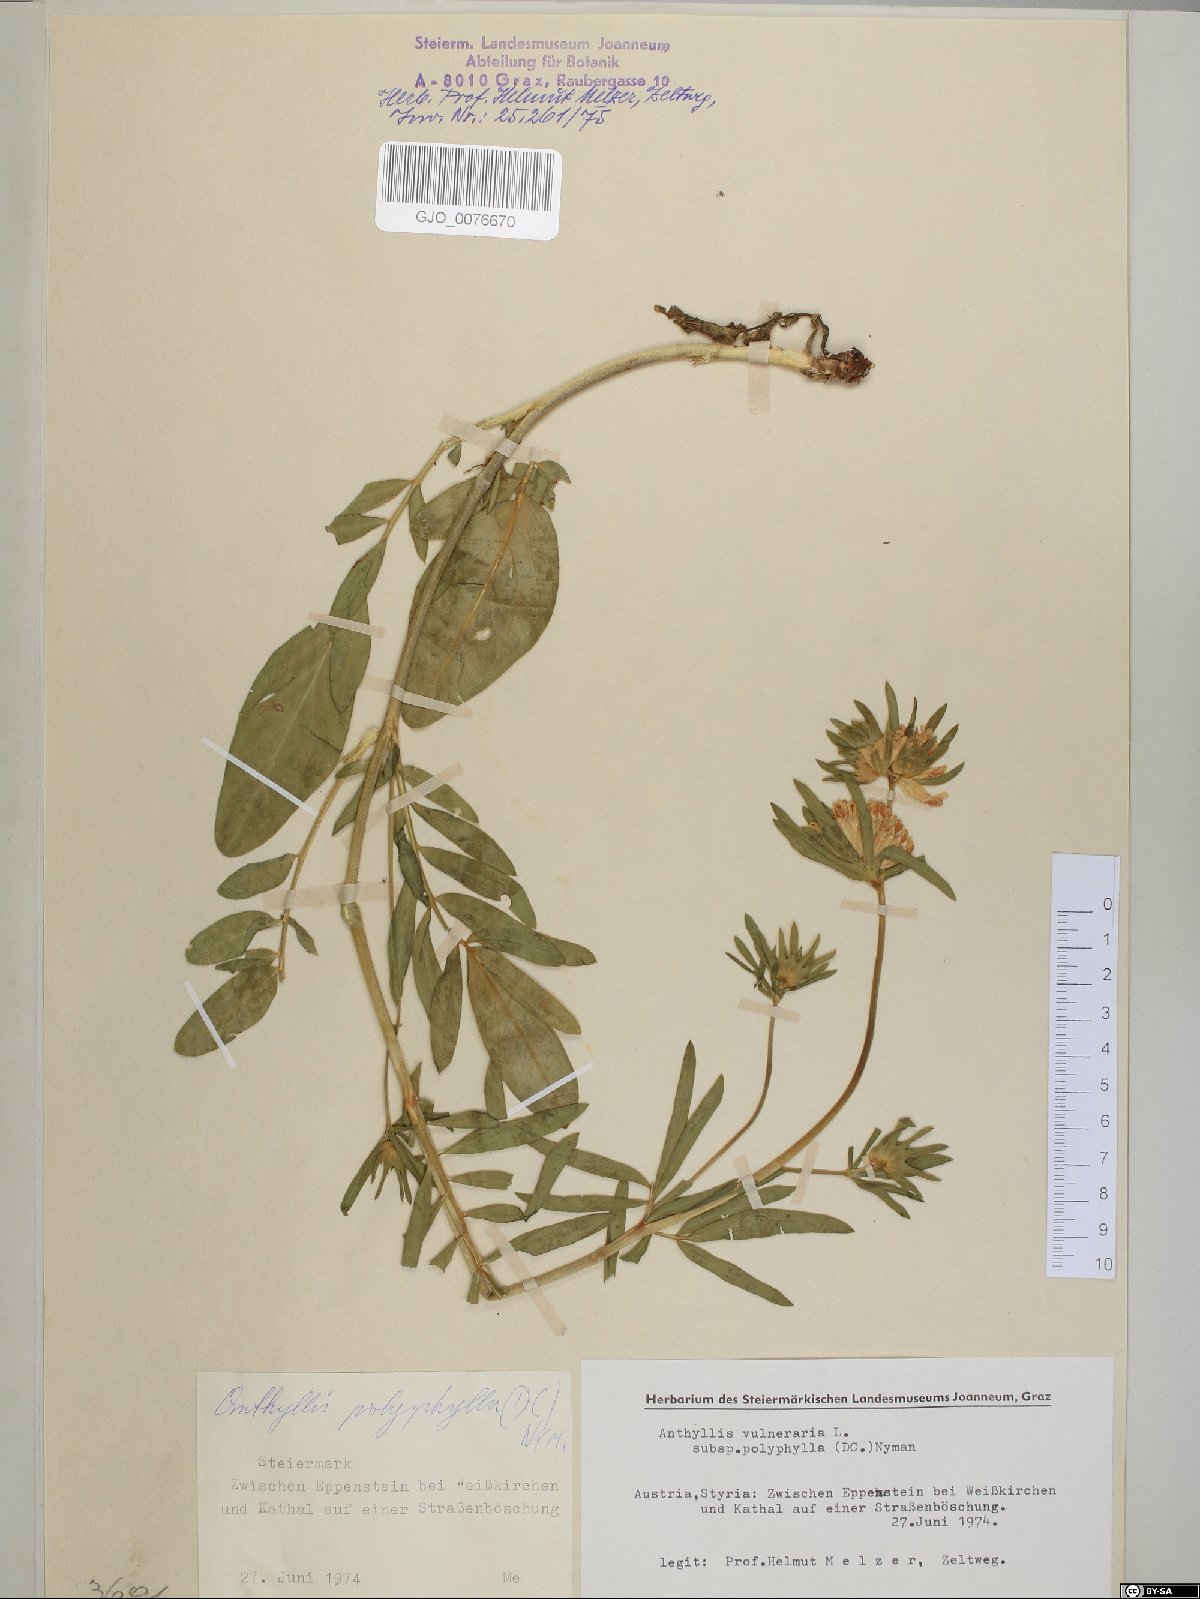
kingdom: Plantae
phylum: Tracheophyta
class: Magnoliopsida
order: Fabales
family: Fabaceae
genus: Anthyllis
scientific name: Anthyllis vulneraria
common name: Kidney vetch
